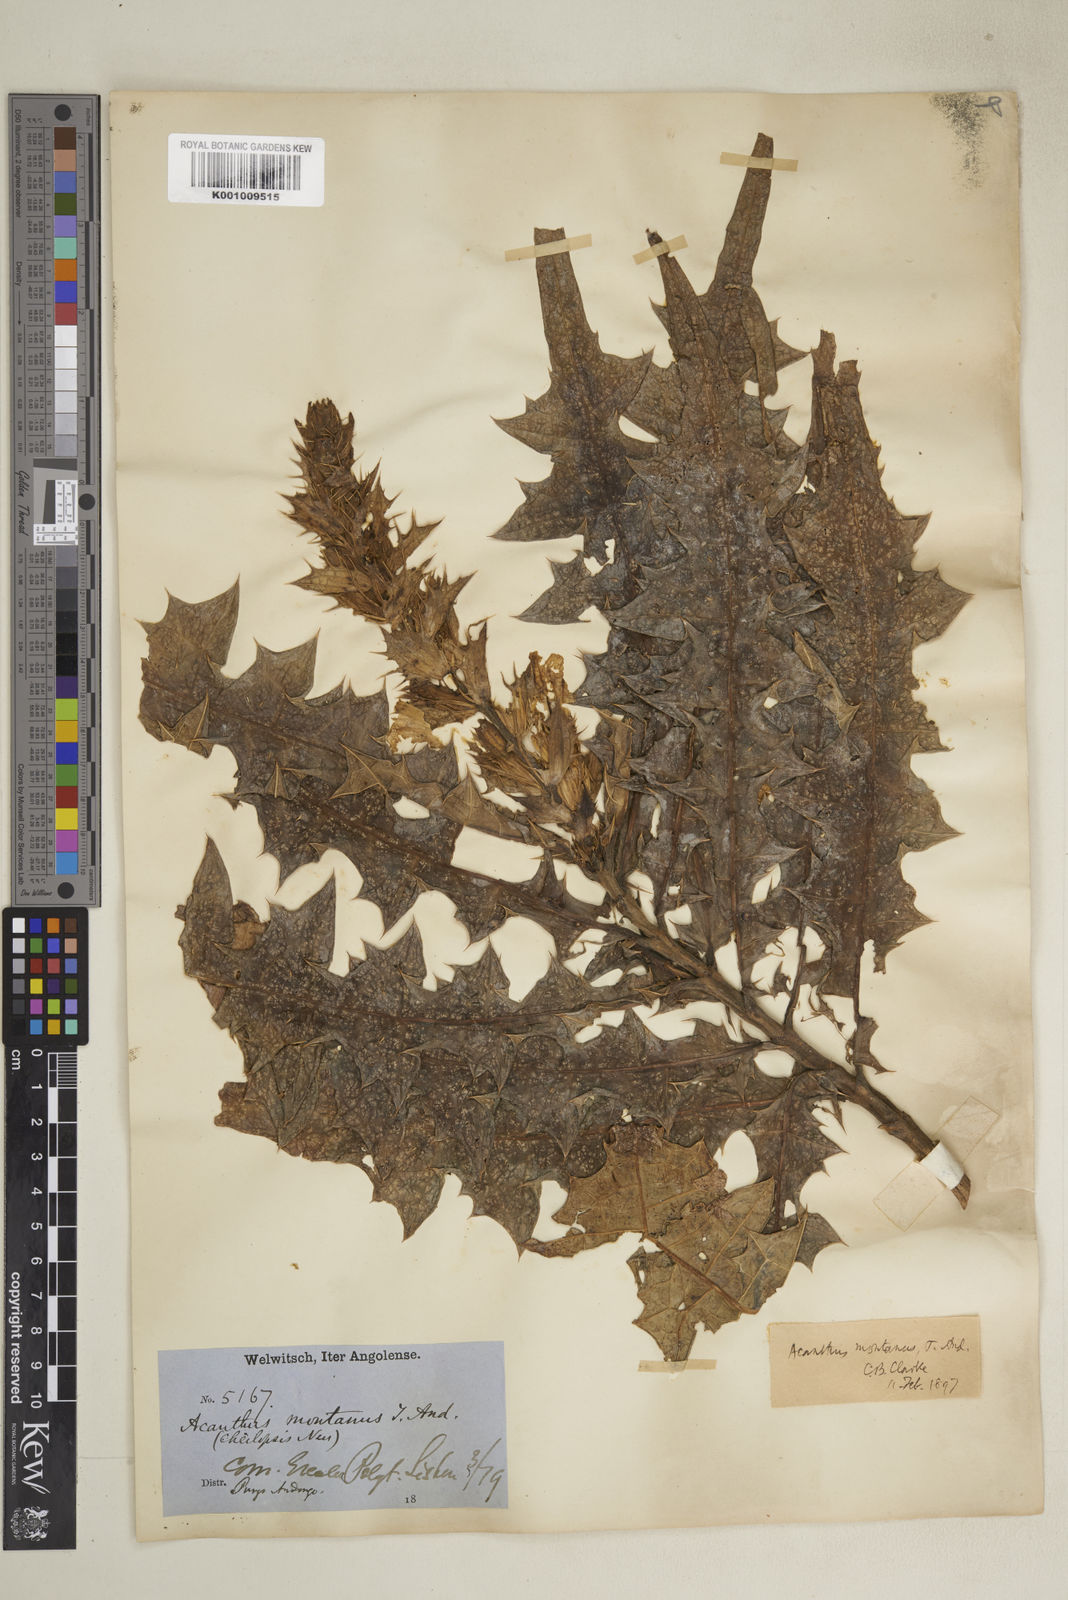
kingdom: Plantae
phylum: Tracheophyta
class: Magnoliopsida
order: Lamiales
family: Acanthaceae
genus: Acanthus
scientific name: Acanthus montanus
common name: Mountain thistle
